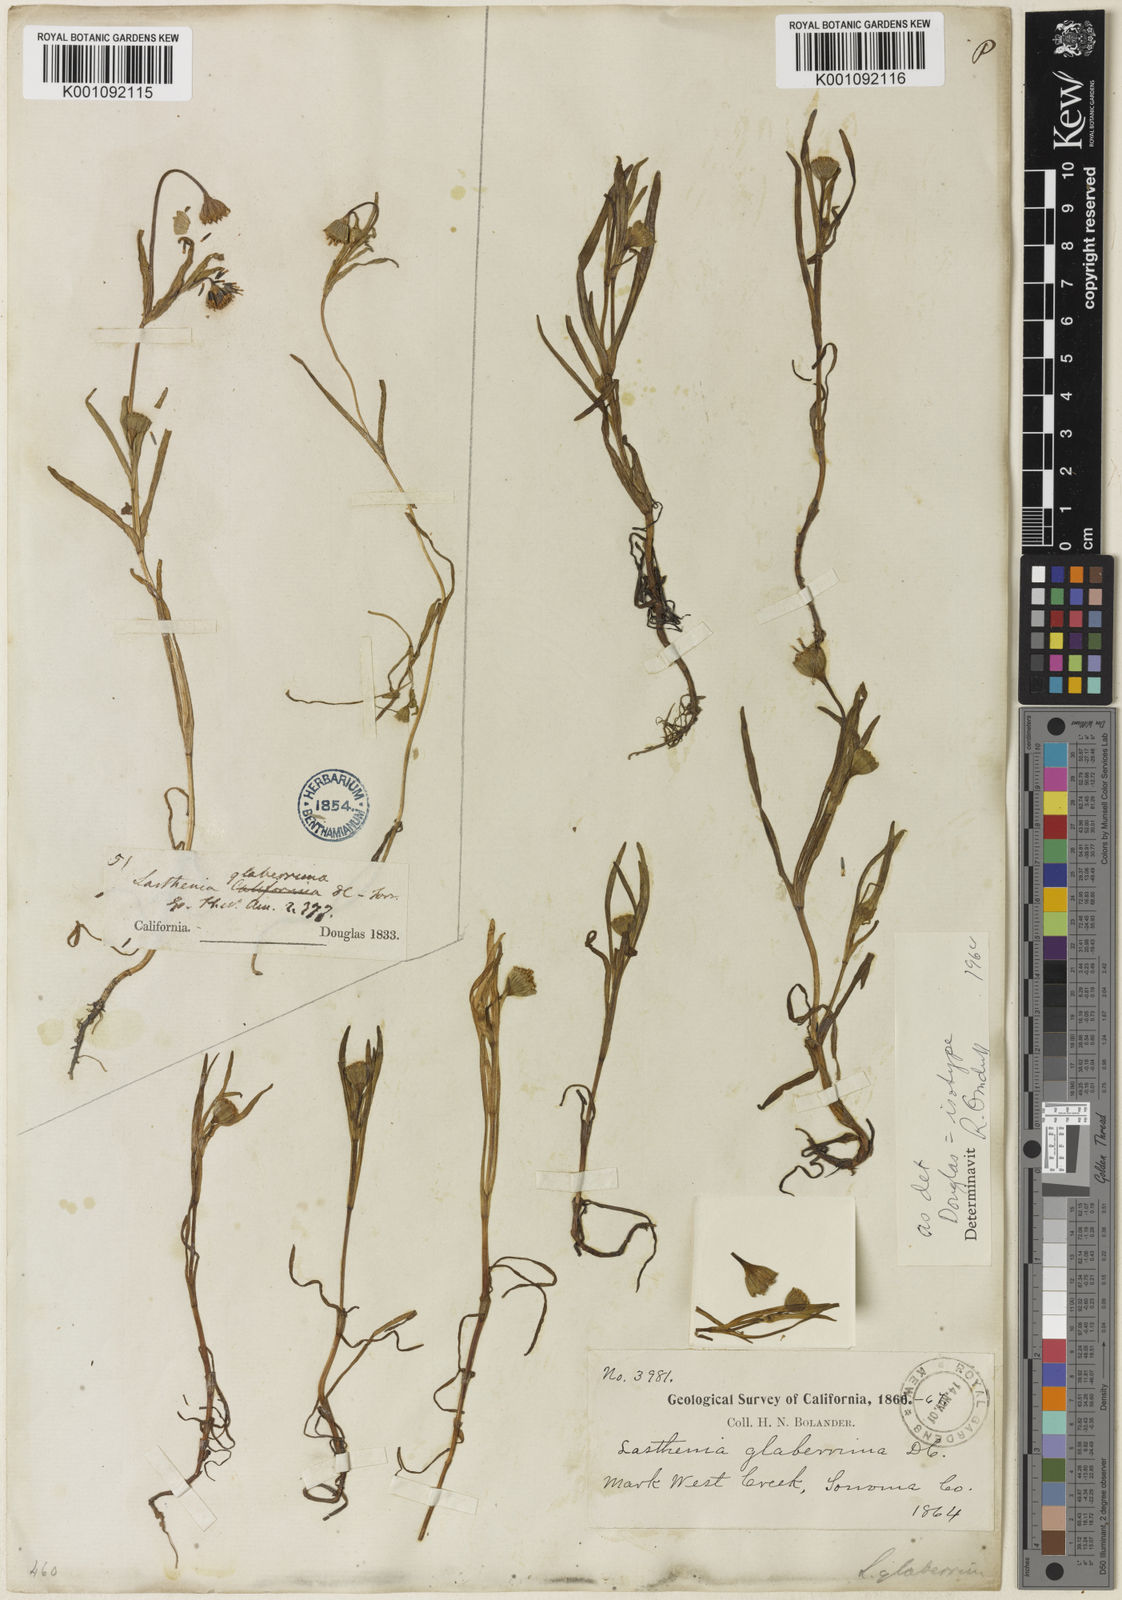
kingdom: Plantae
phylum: Tracheophyta
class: Magnoliopsida
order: Asterales
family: Asteraceae
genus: Lasthenia
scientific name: Lasthenia glaberrima
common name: Smooth goldfields
